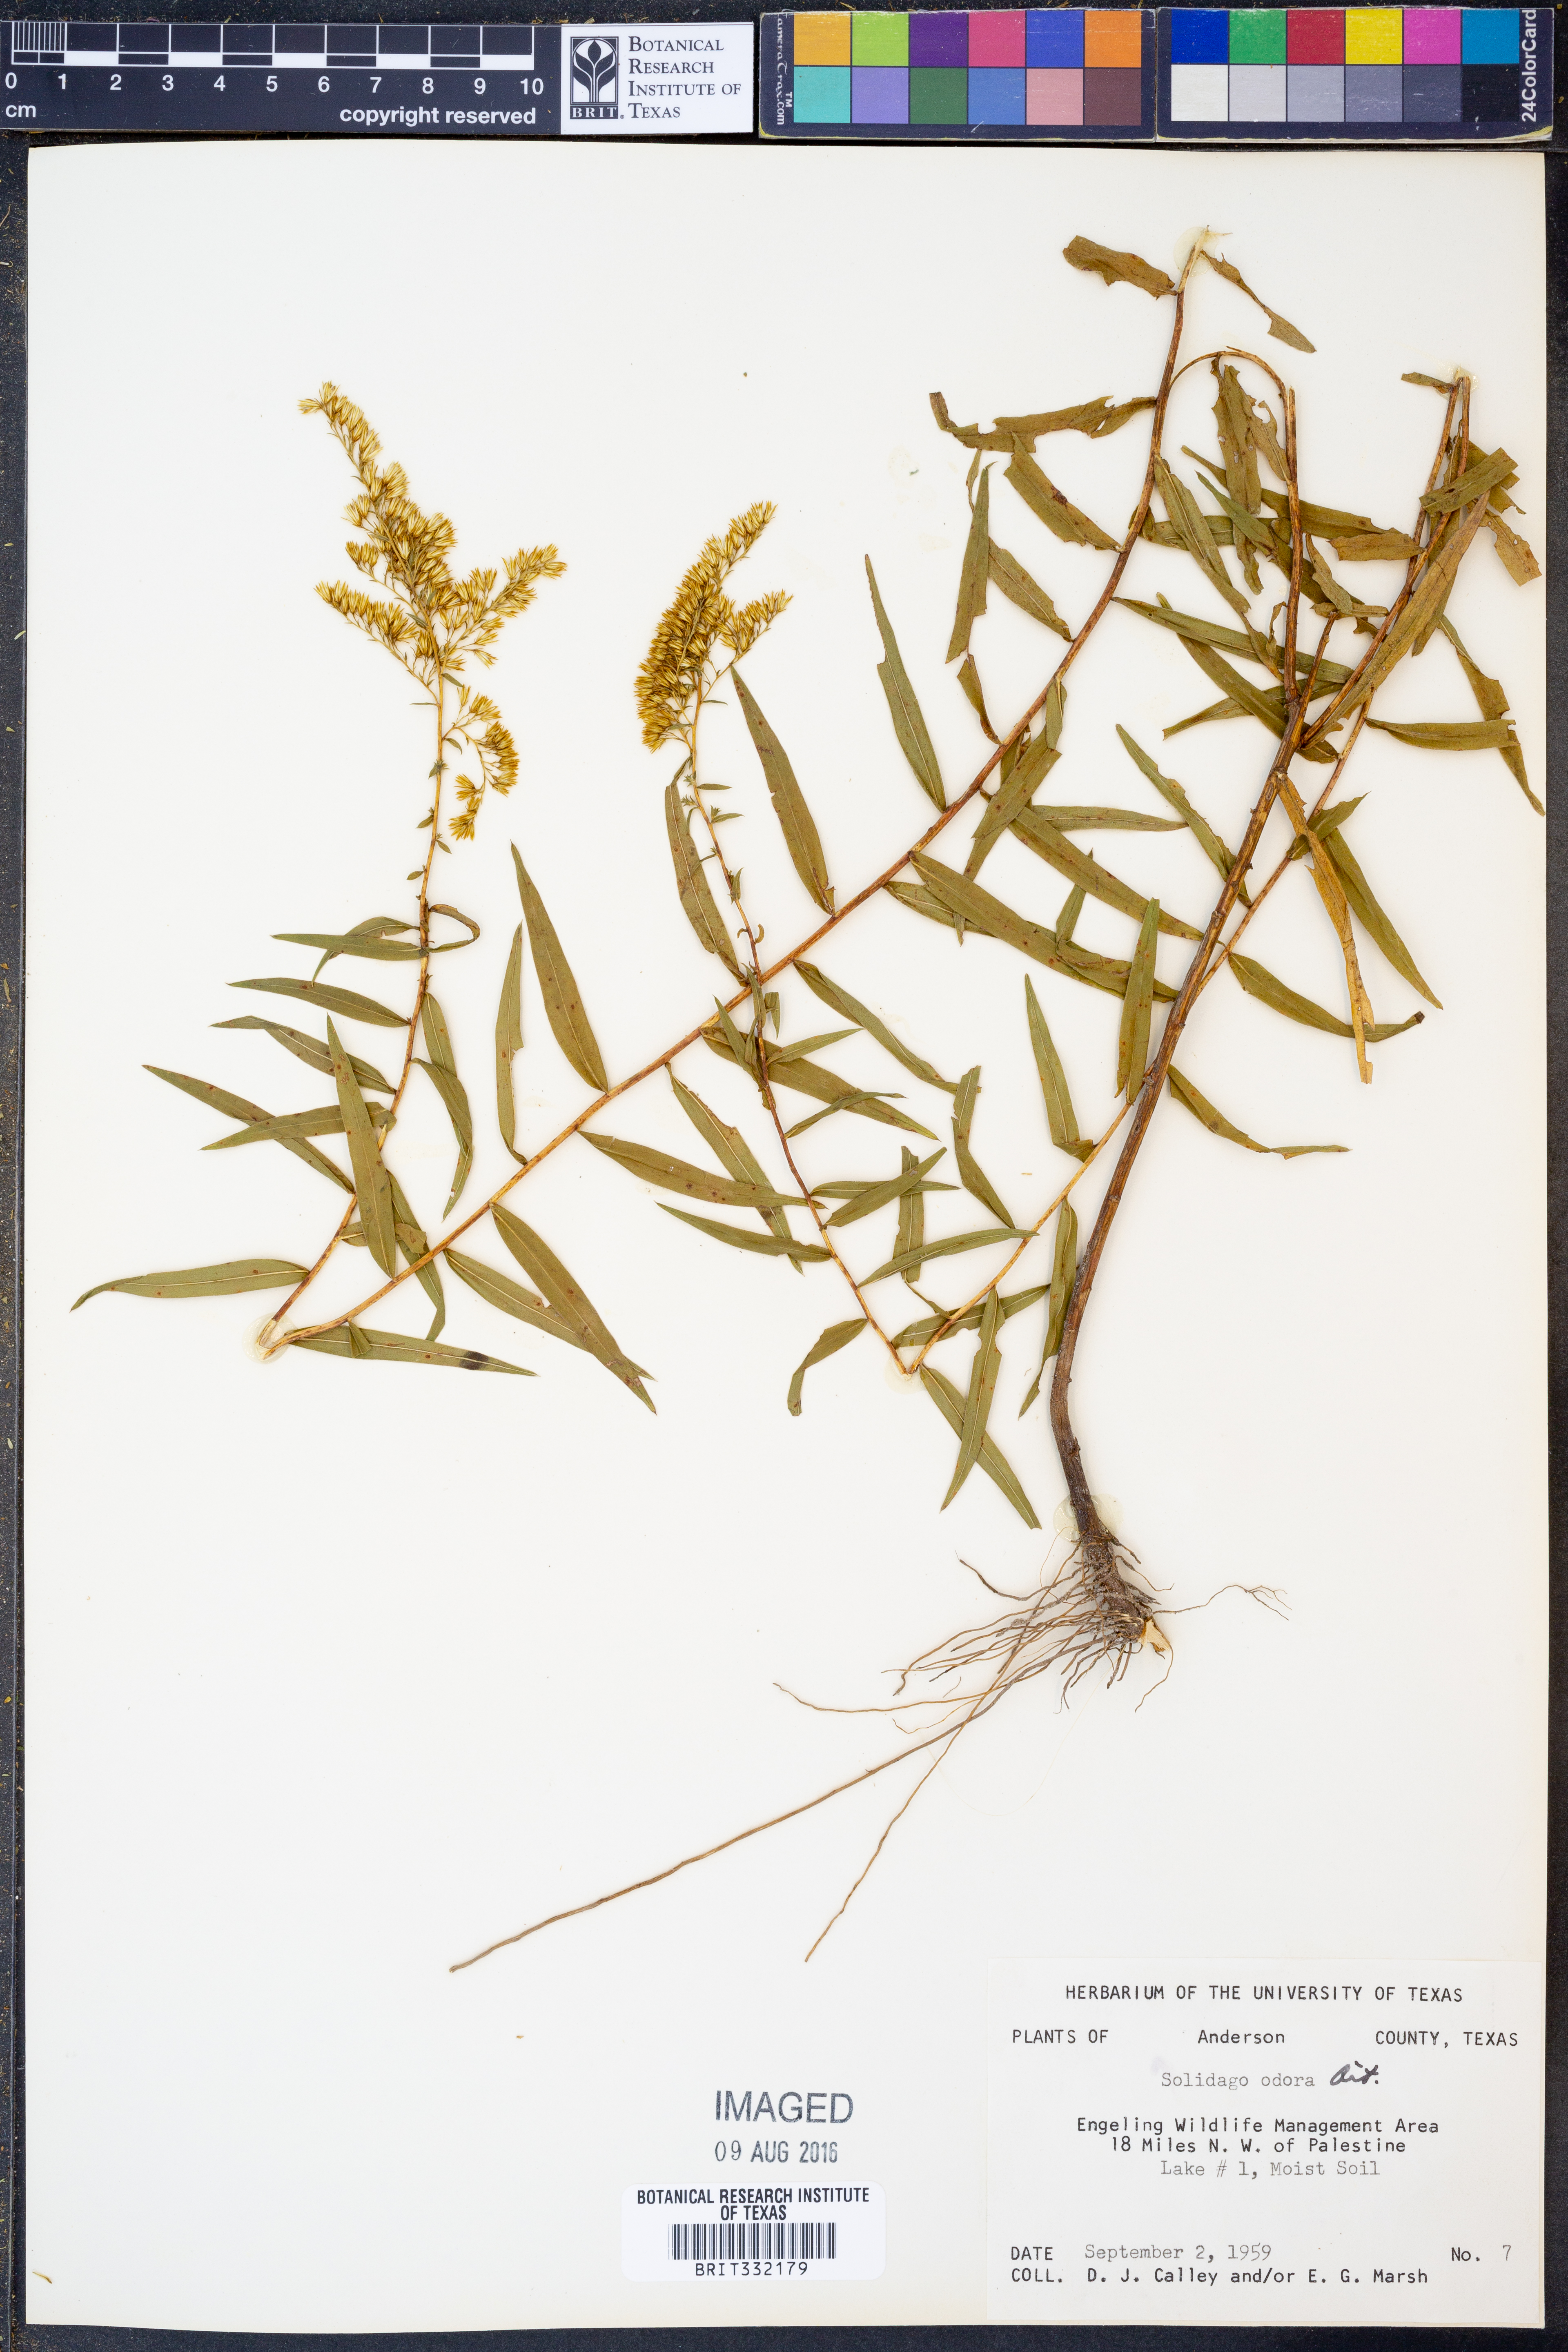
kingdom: Plantae
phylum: Tracheophyta
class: Magnoliopsida
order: Asterales
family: Asteraceae
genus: Solidago
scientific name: Solidago rugosa
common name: Rough-stemmed goldenrod
